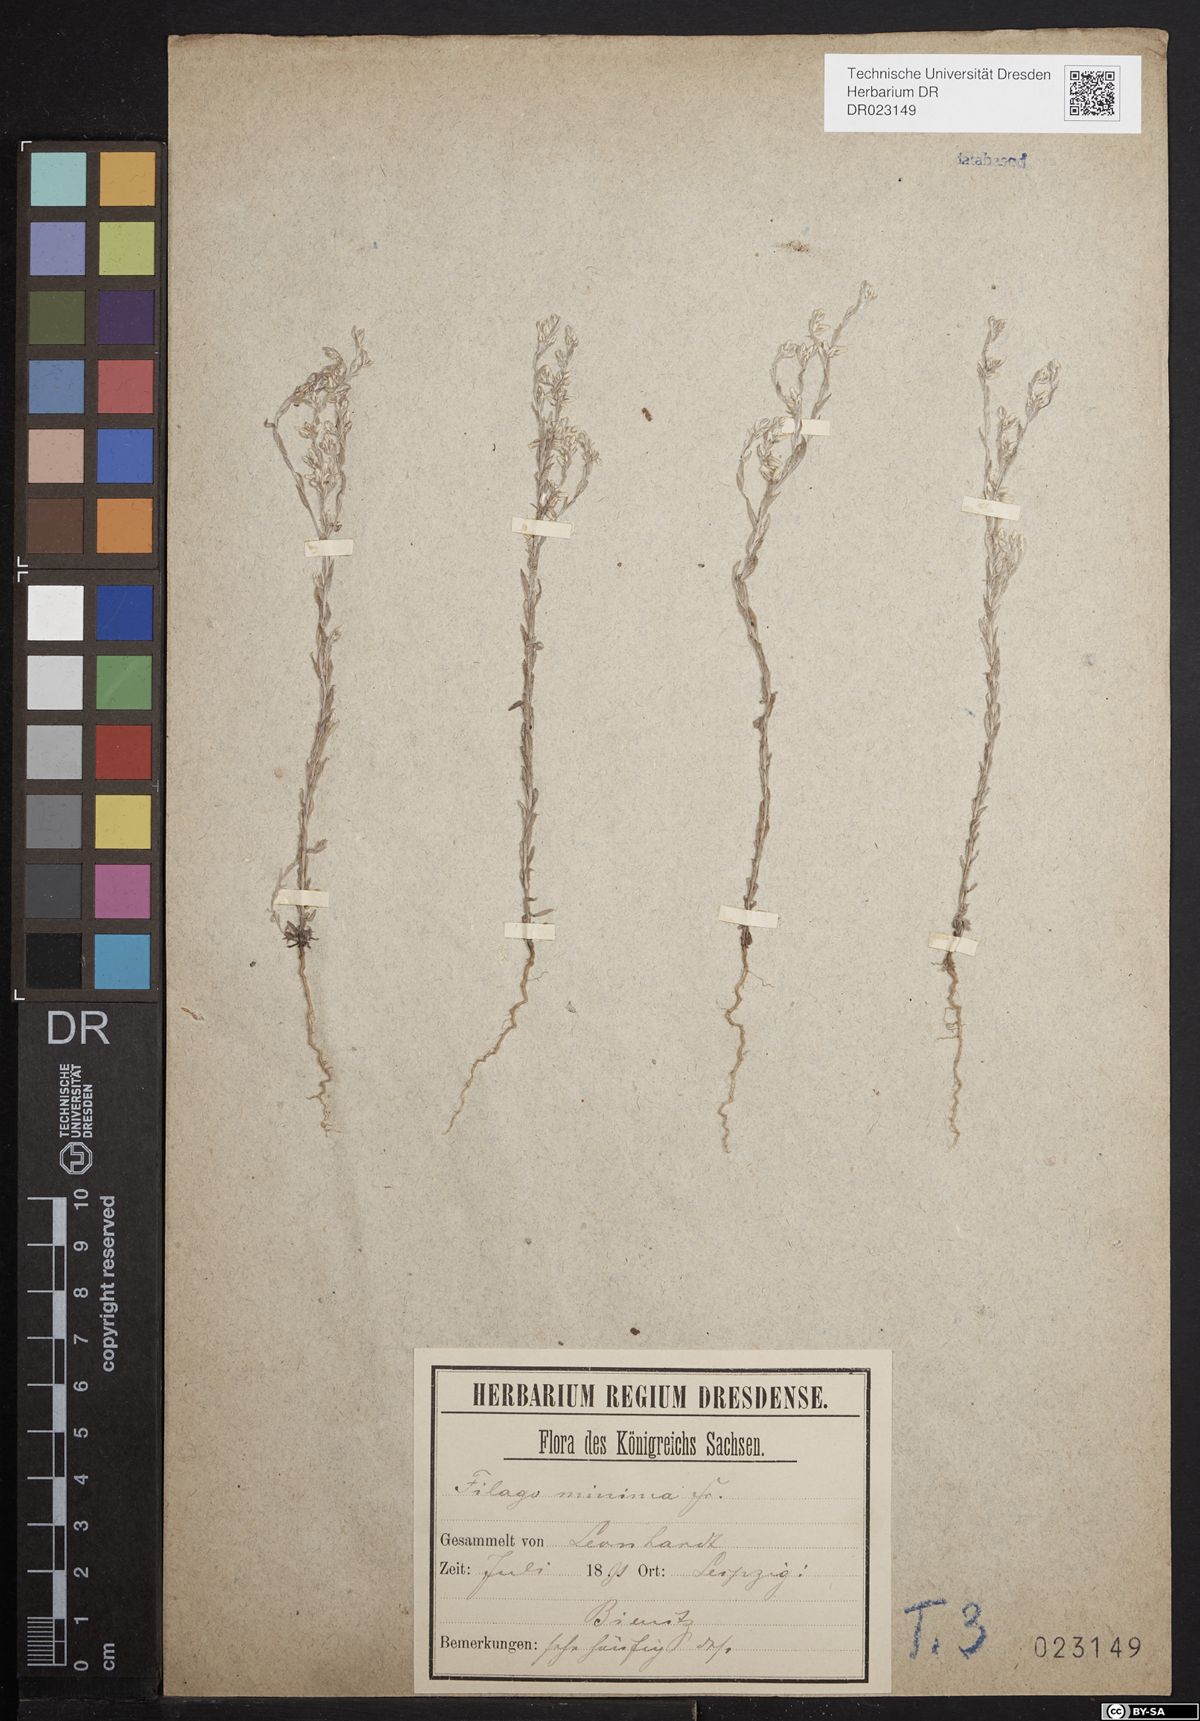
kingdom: Plantae
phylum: Tracheophyta
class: Magnoliopsida
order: Asterales
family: Asteraceae
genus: Logfia
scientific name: Logfia minima
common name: Little cottonrose
